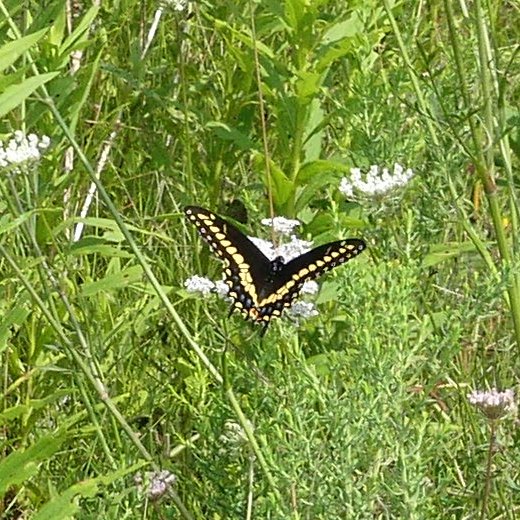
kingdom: Animalia
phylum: Arthropoda
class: Insecta
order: Lepidoptera
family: Papilionidae
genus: Papilio
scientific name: Papilio polyxenes
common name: Black Swallowtail
